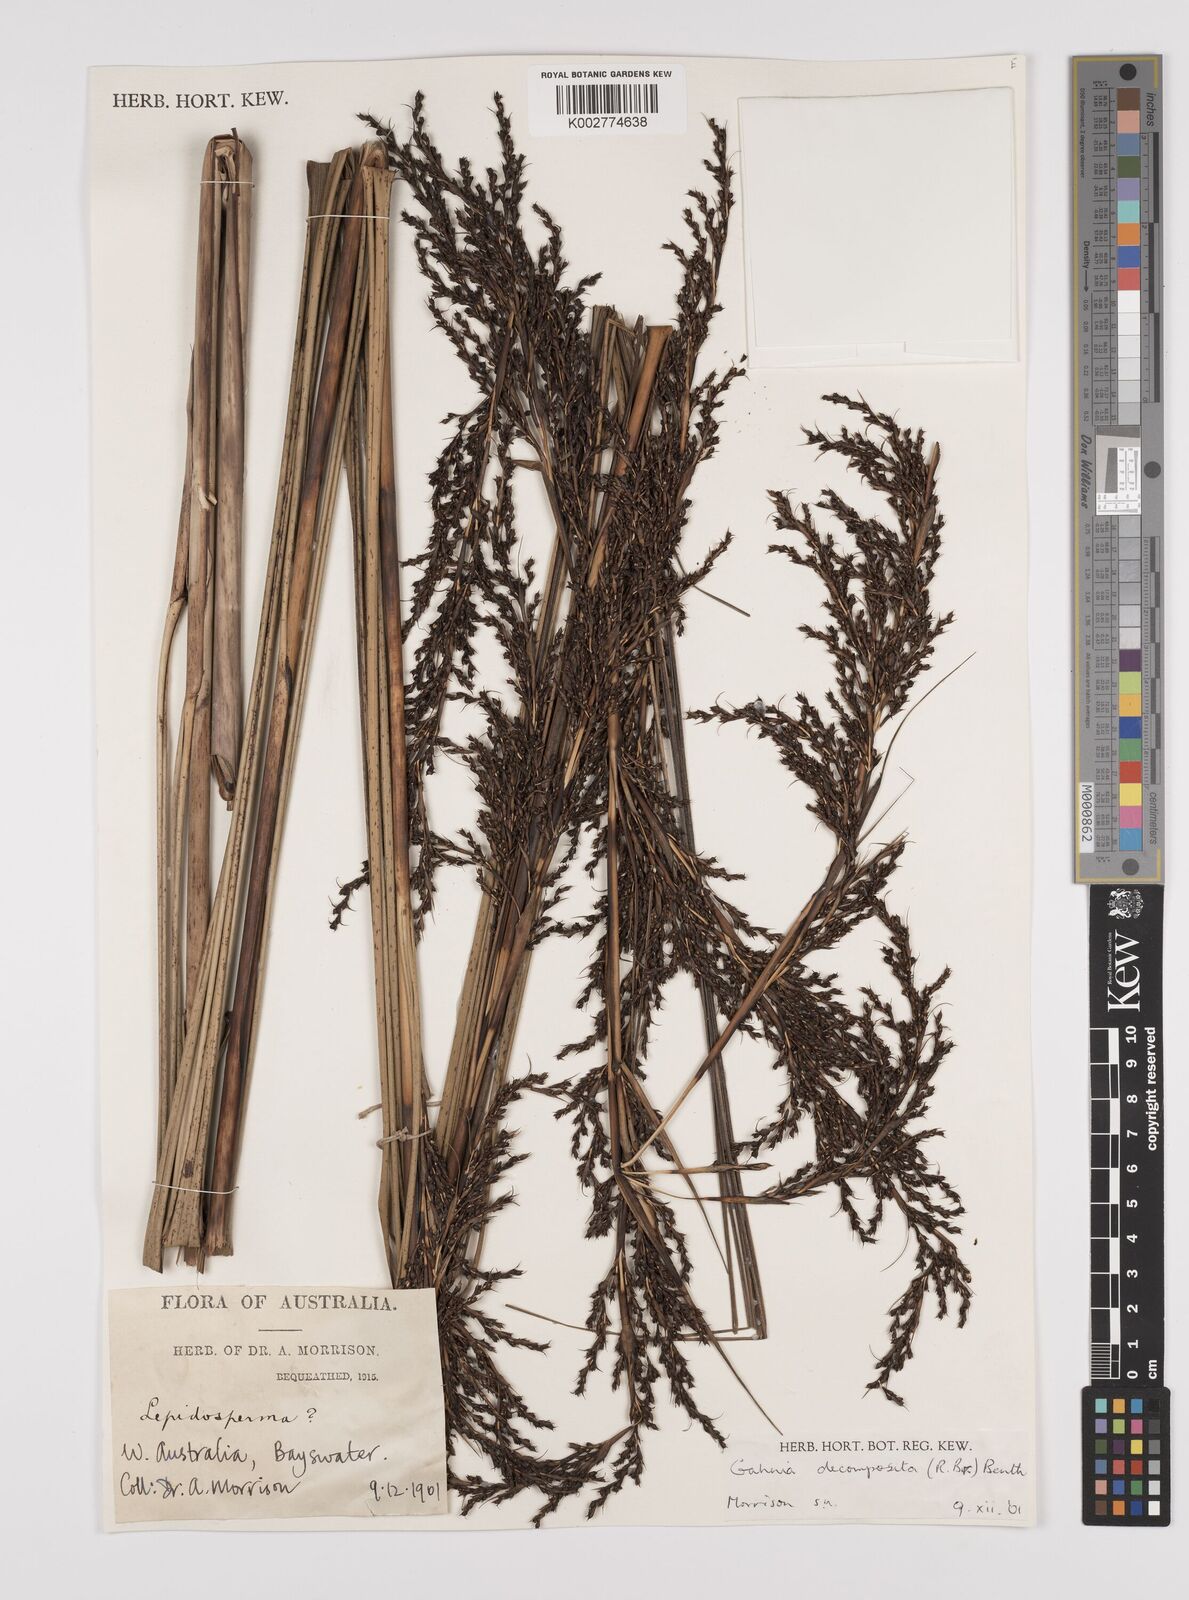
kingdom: Plantae
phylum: Tracheophyta
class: Liliopsida
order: Poales
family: Cyperaceae
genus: Gahnia
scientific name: Gahnia decomposita
